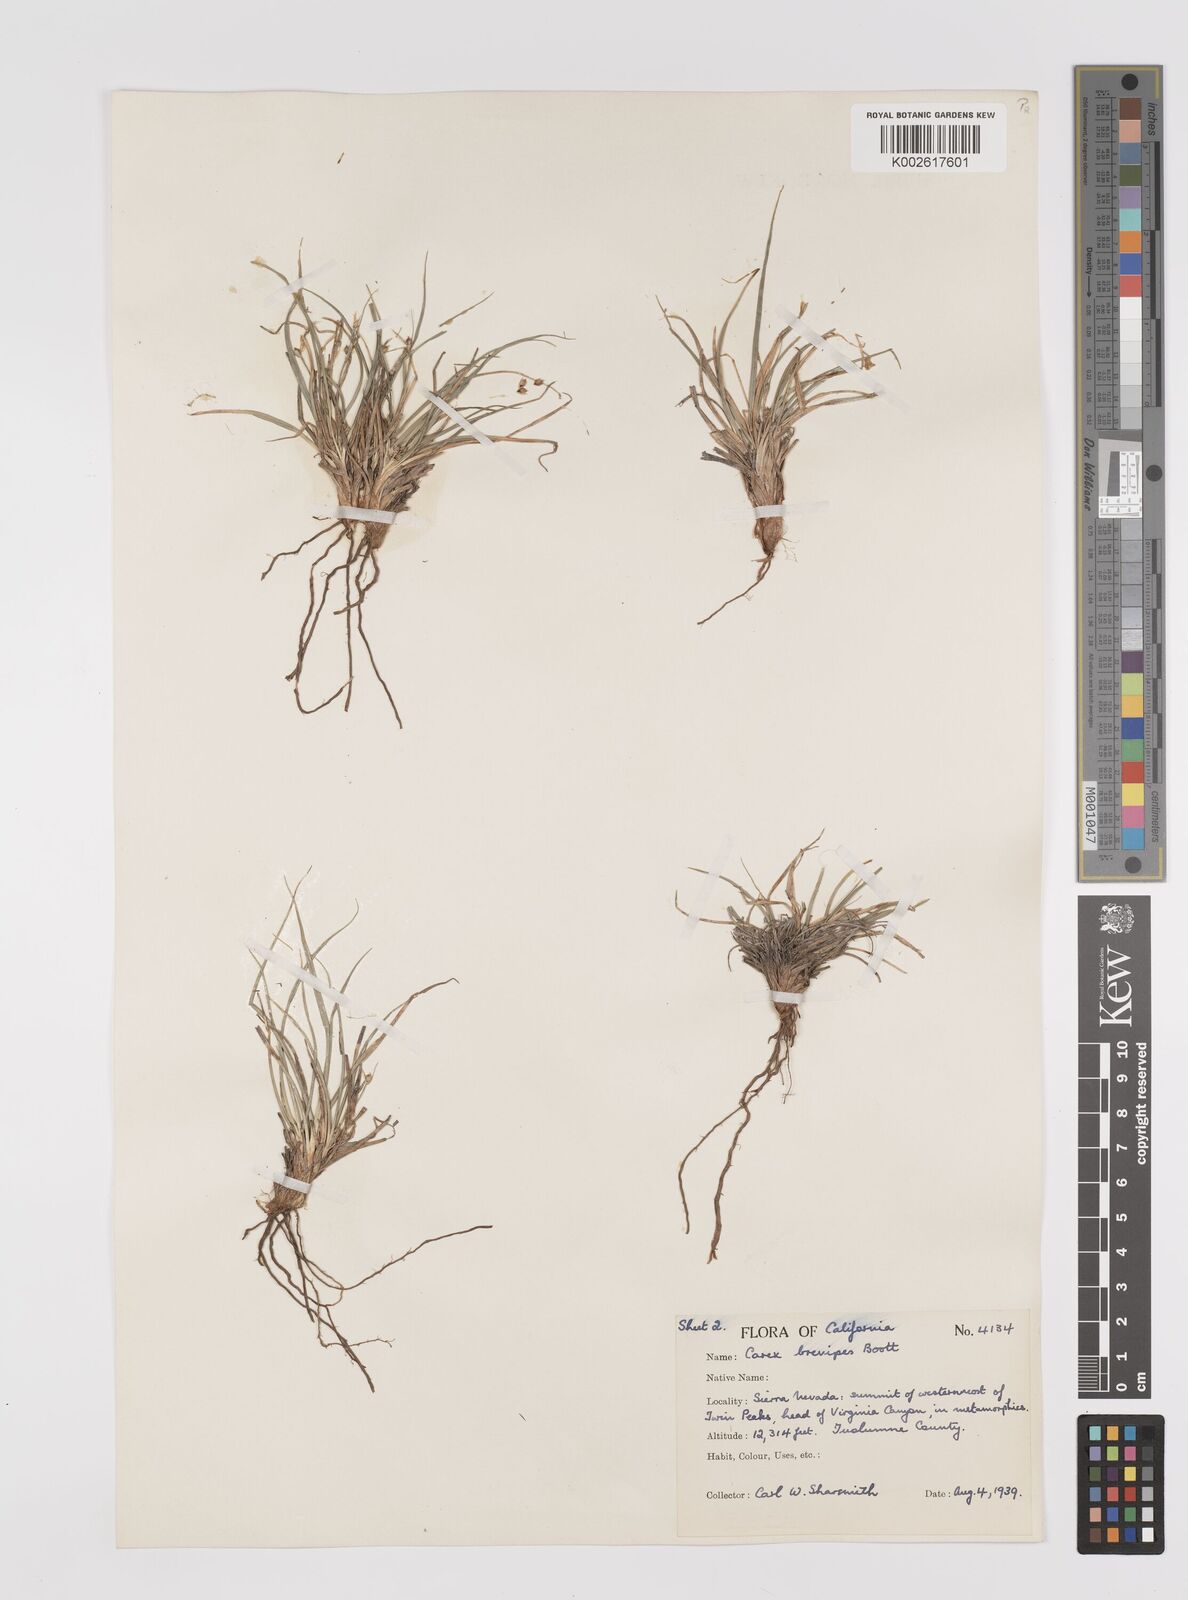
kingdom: Plantae
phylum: Tracheophyta
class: Liliopsida
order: Poales
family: Cyperaceae
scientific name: Cyperaceae
